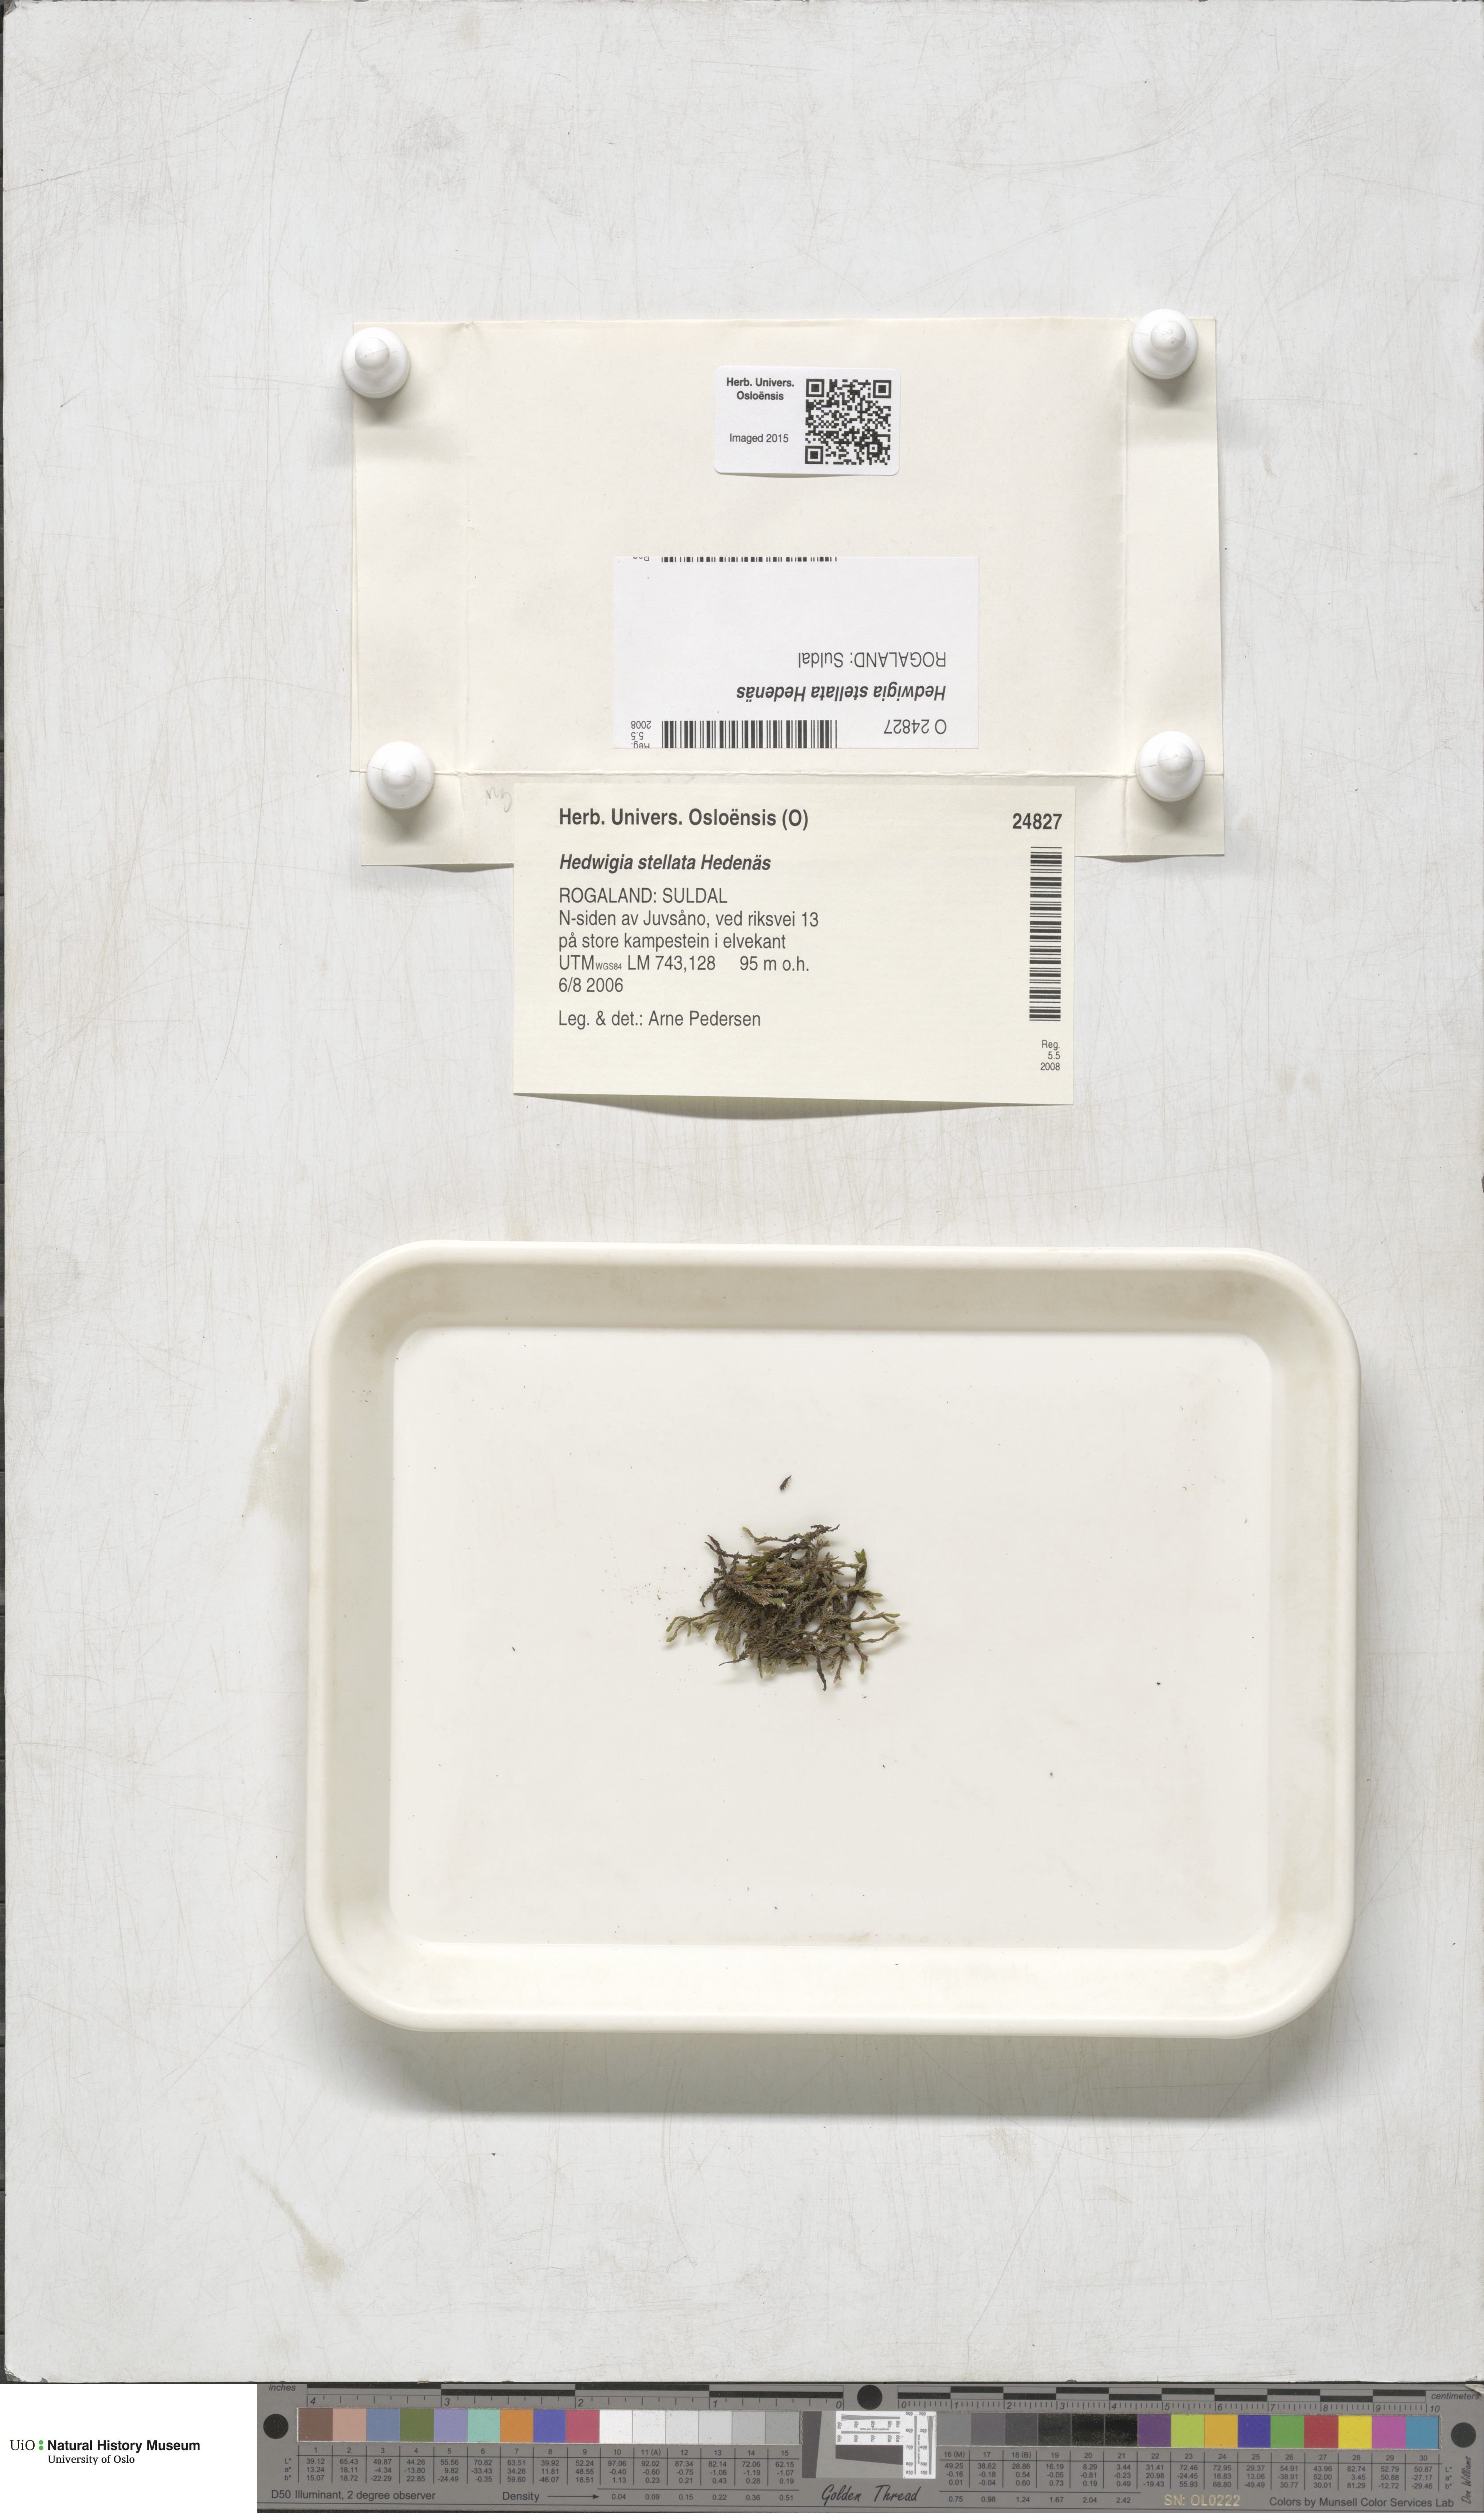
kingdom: Plantae
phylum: Bryophyta
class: Bryopsida
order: Hedwigiales
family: Hedwigiaceae
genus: Hedwigia
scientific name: Hedwigia stellata
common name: Starry hoar-moss
